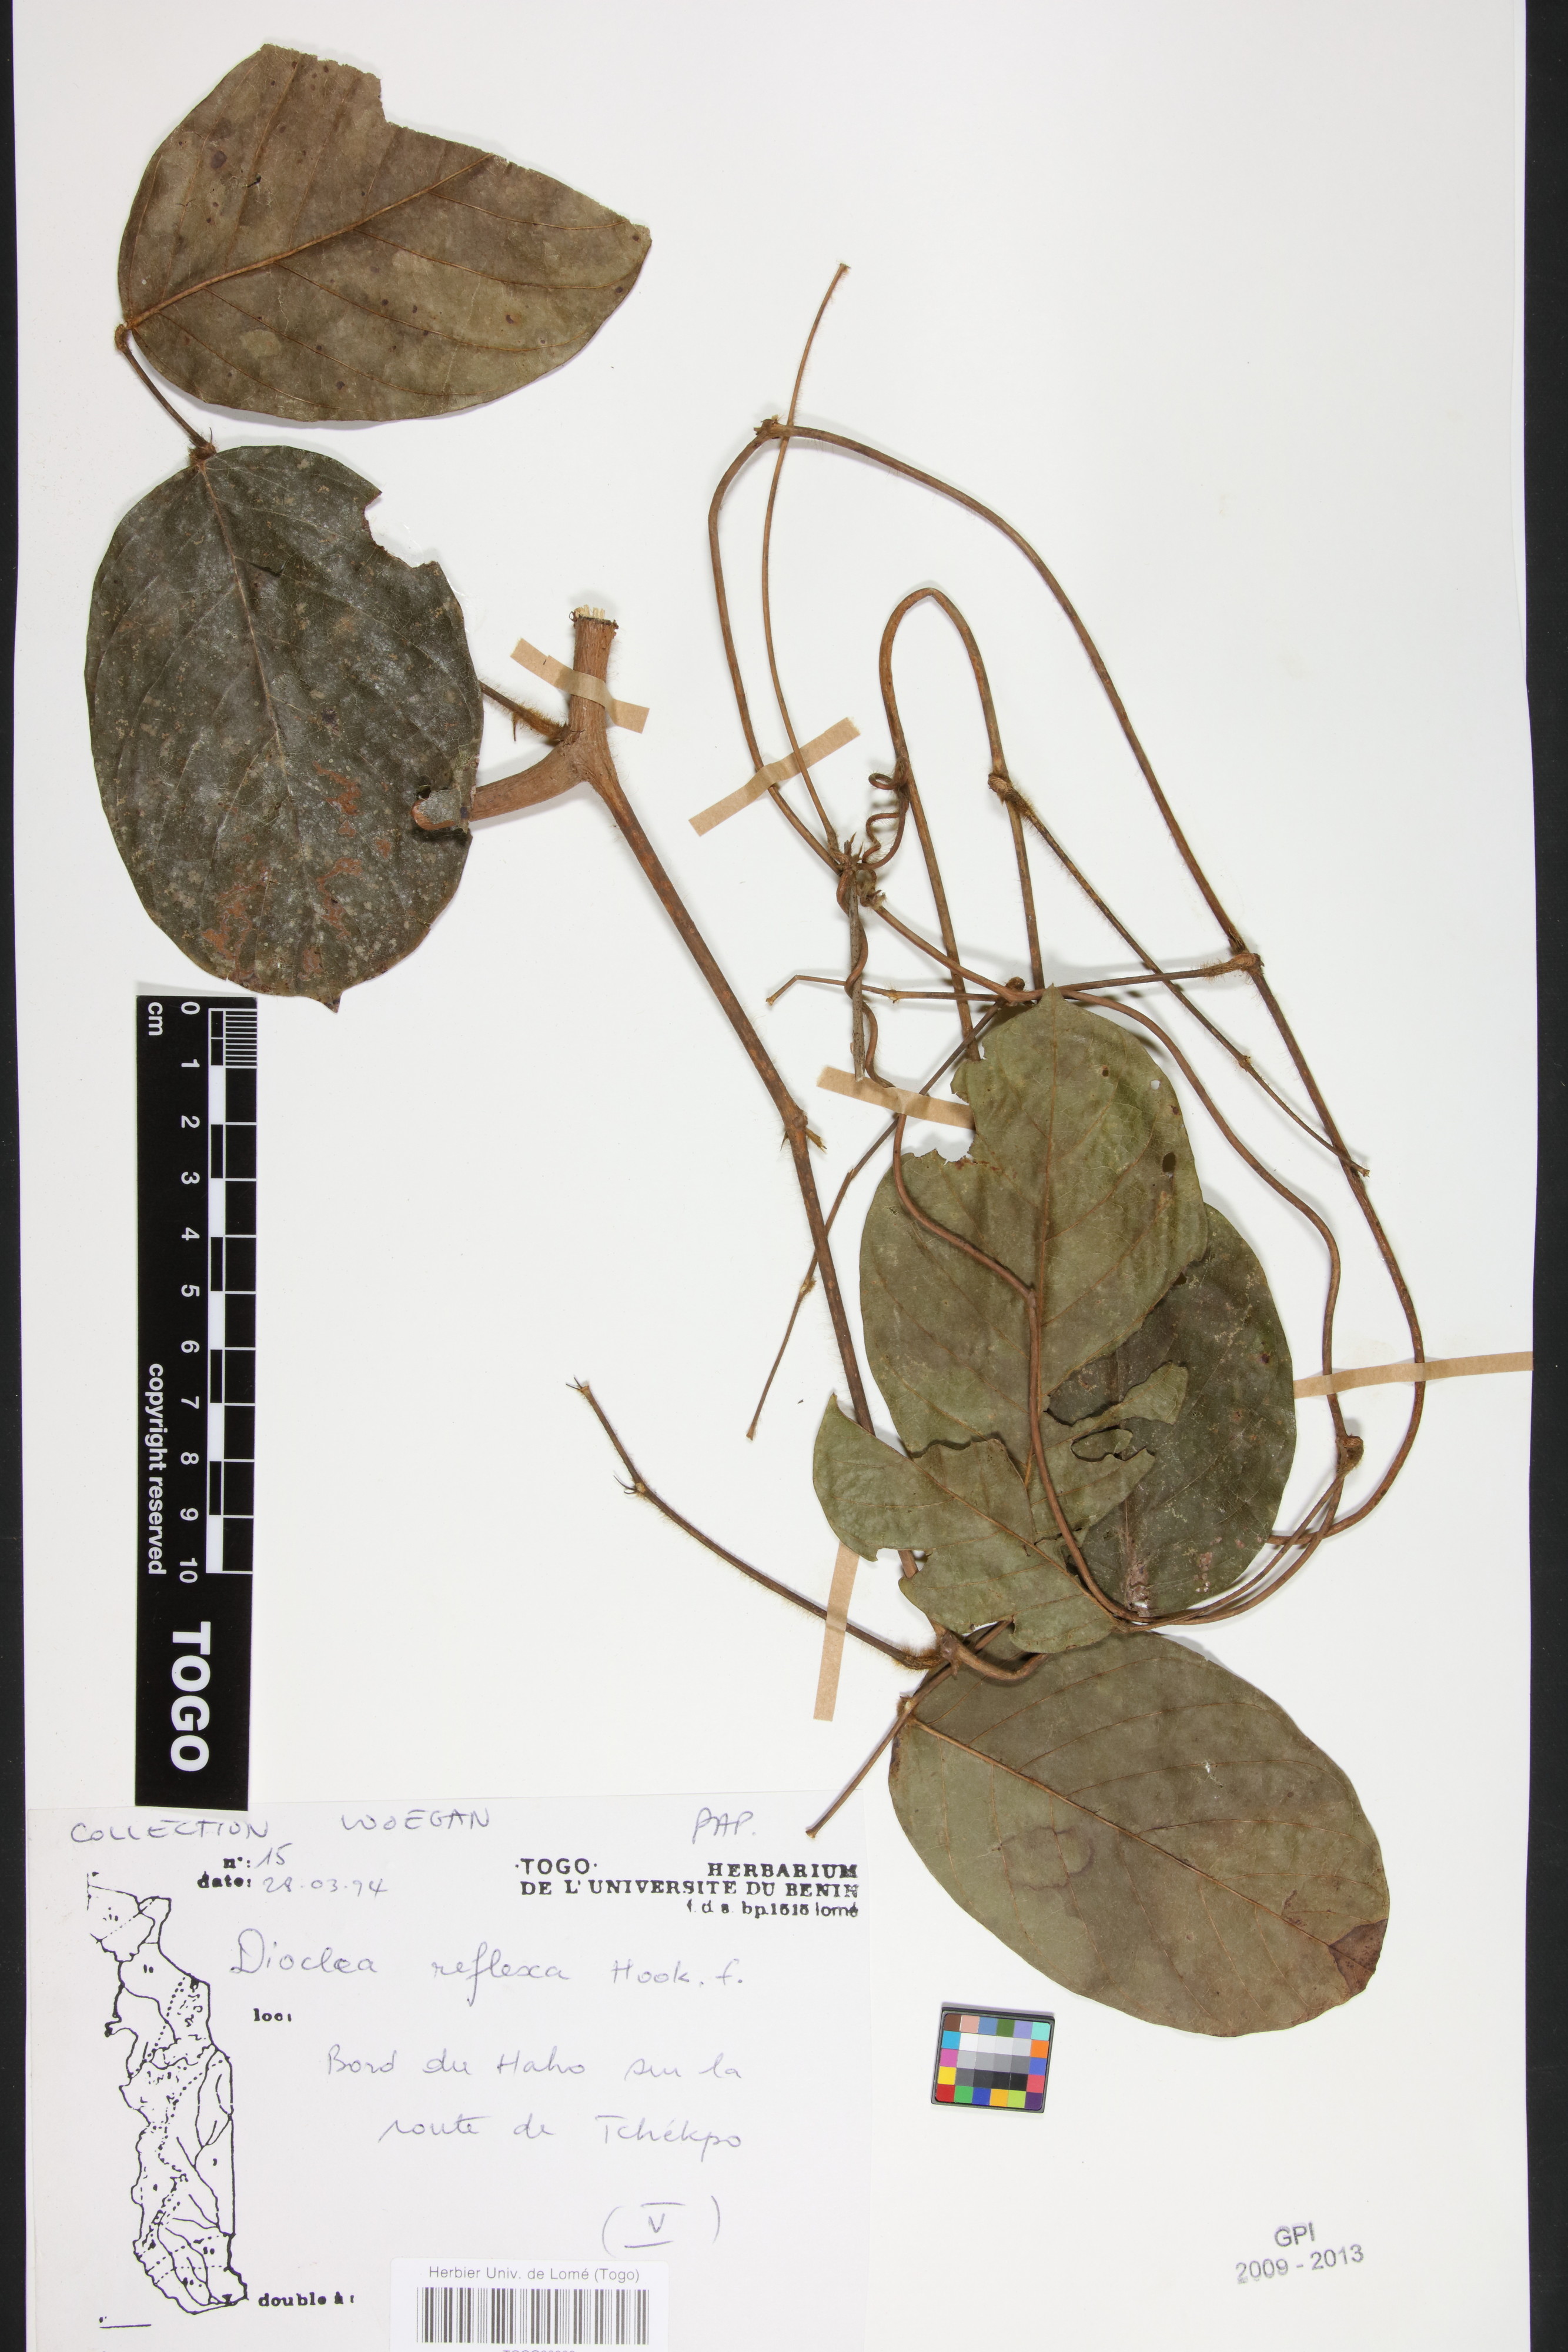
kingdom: Plantae
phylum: Tracheophyta
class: Magnoliopsida
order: Fabales
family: Fabaceae
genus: Macropsychanthus
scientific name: Macropsychanthus comosus
